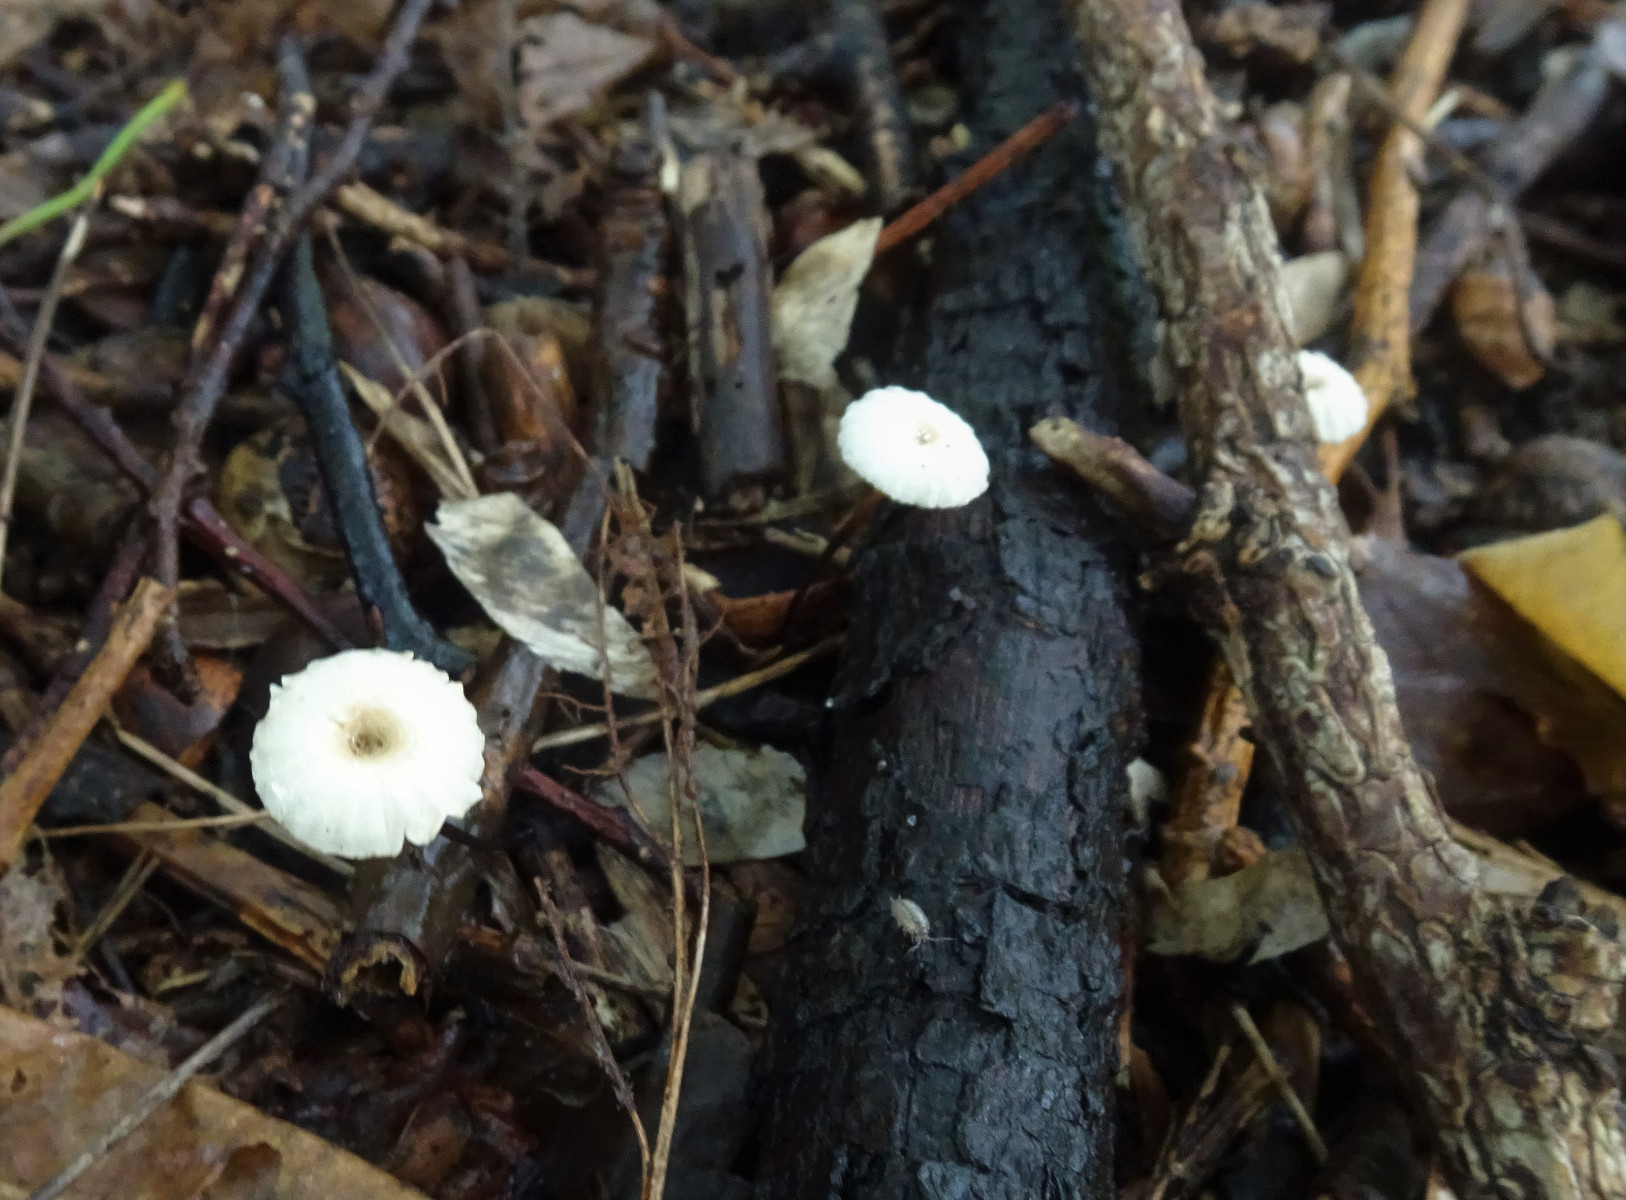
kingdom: Fungi
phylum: Basidiomycota
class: Agaricomycetes
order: Agaricales
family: Marasmiaceae
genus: Marasmius
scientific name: Marasmius rotula
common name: hjul-bruskhat
